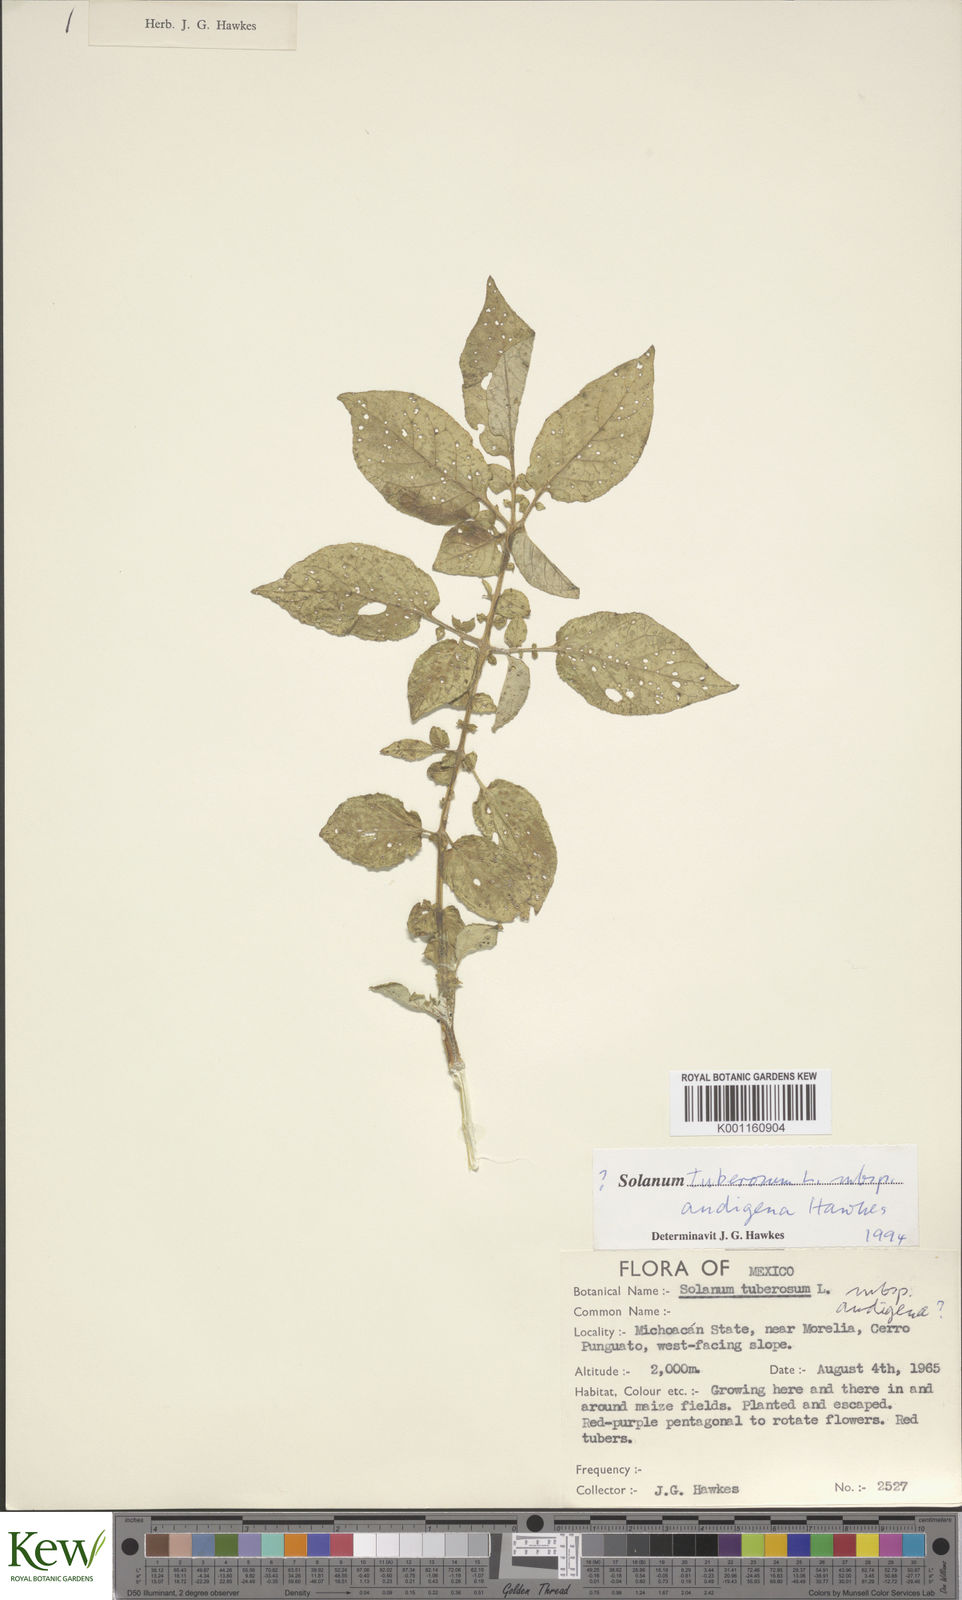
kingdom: Plantae
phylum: Tracheophyta
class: Magnoliopsida
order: Solanales
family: Solanaceae
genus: Solanum
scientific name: Solanum tuberosum
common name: Potato
